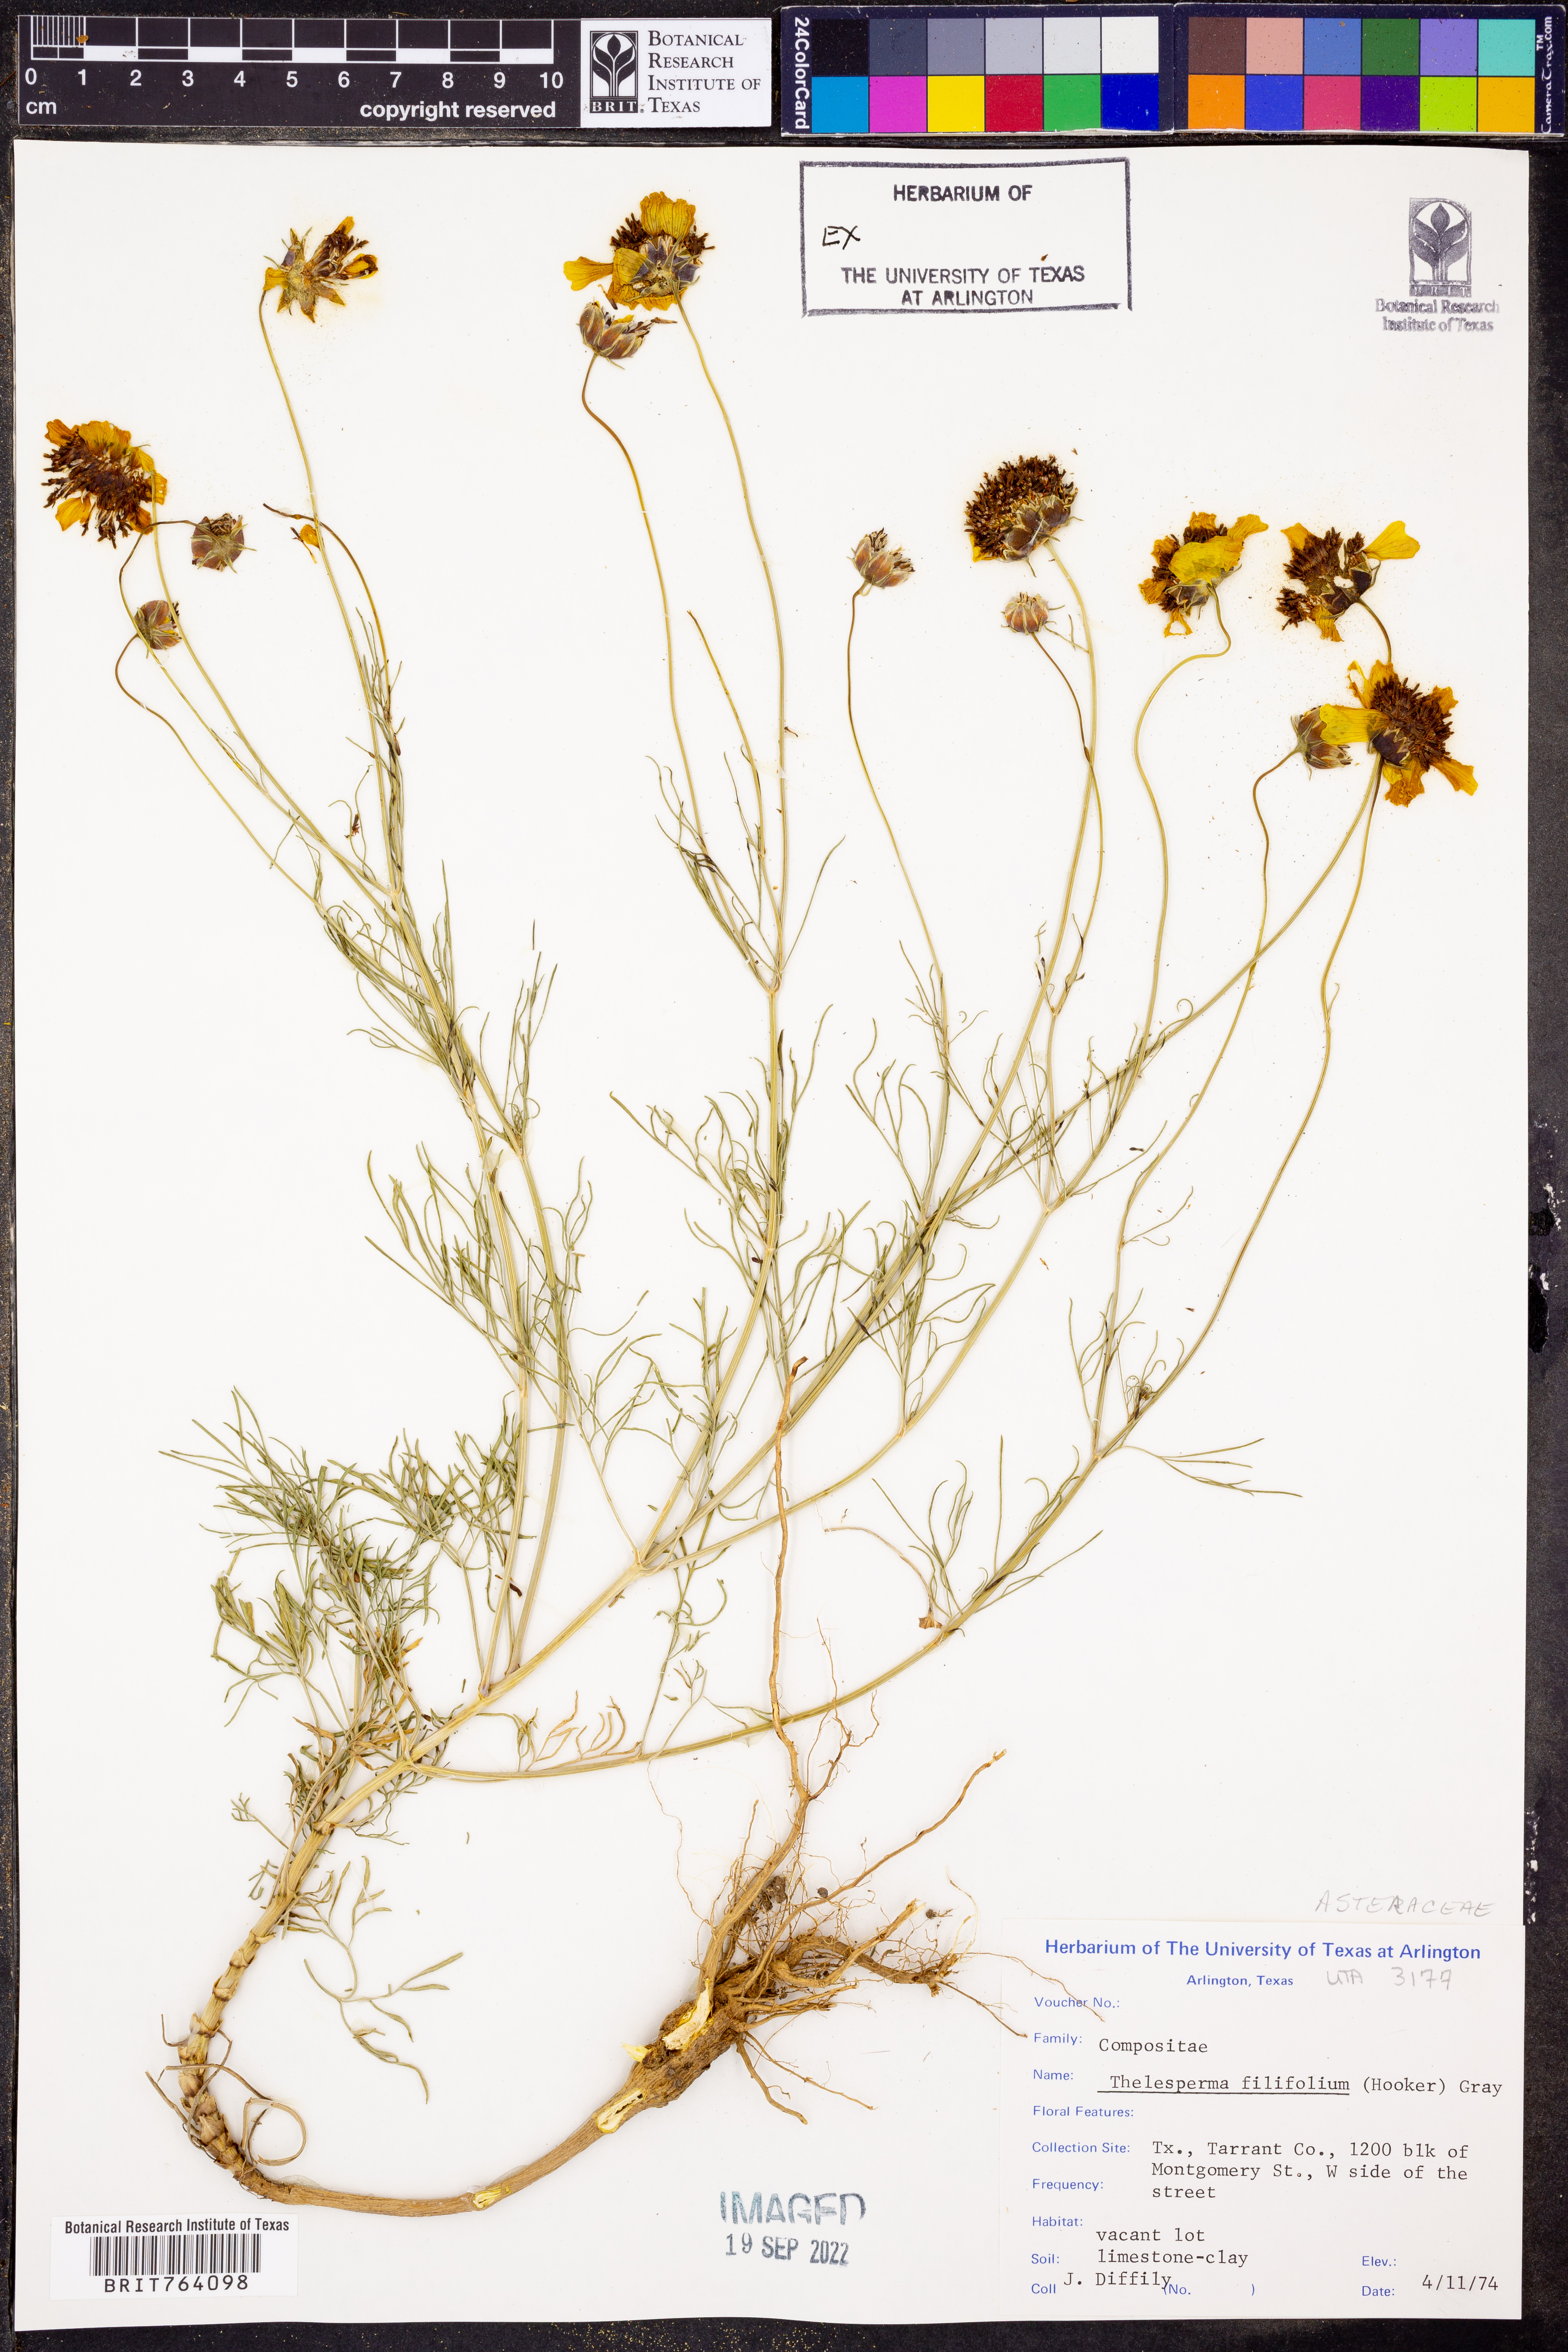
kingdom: Plantae
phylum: Tracheophyta
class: Magnoliopsida
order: Asterales
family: Asteraceae
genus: Thelesperma
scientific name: Thelesperma filifolium
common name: Stiff greenthread
